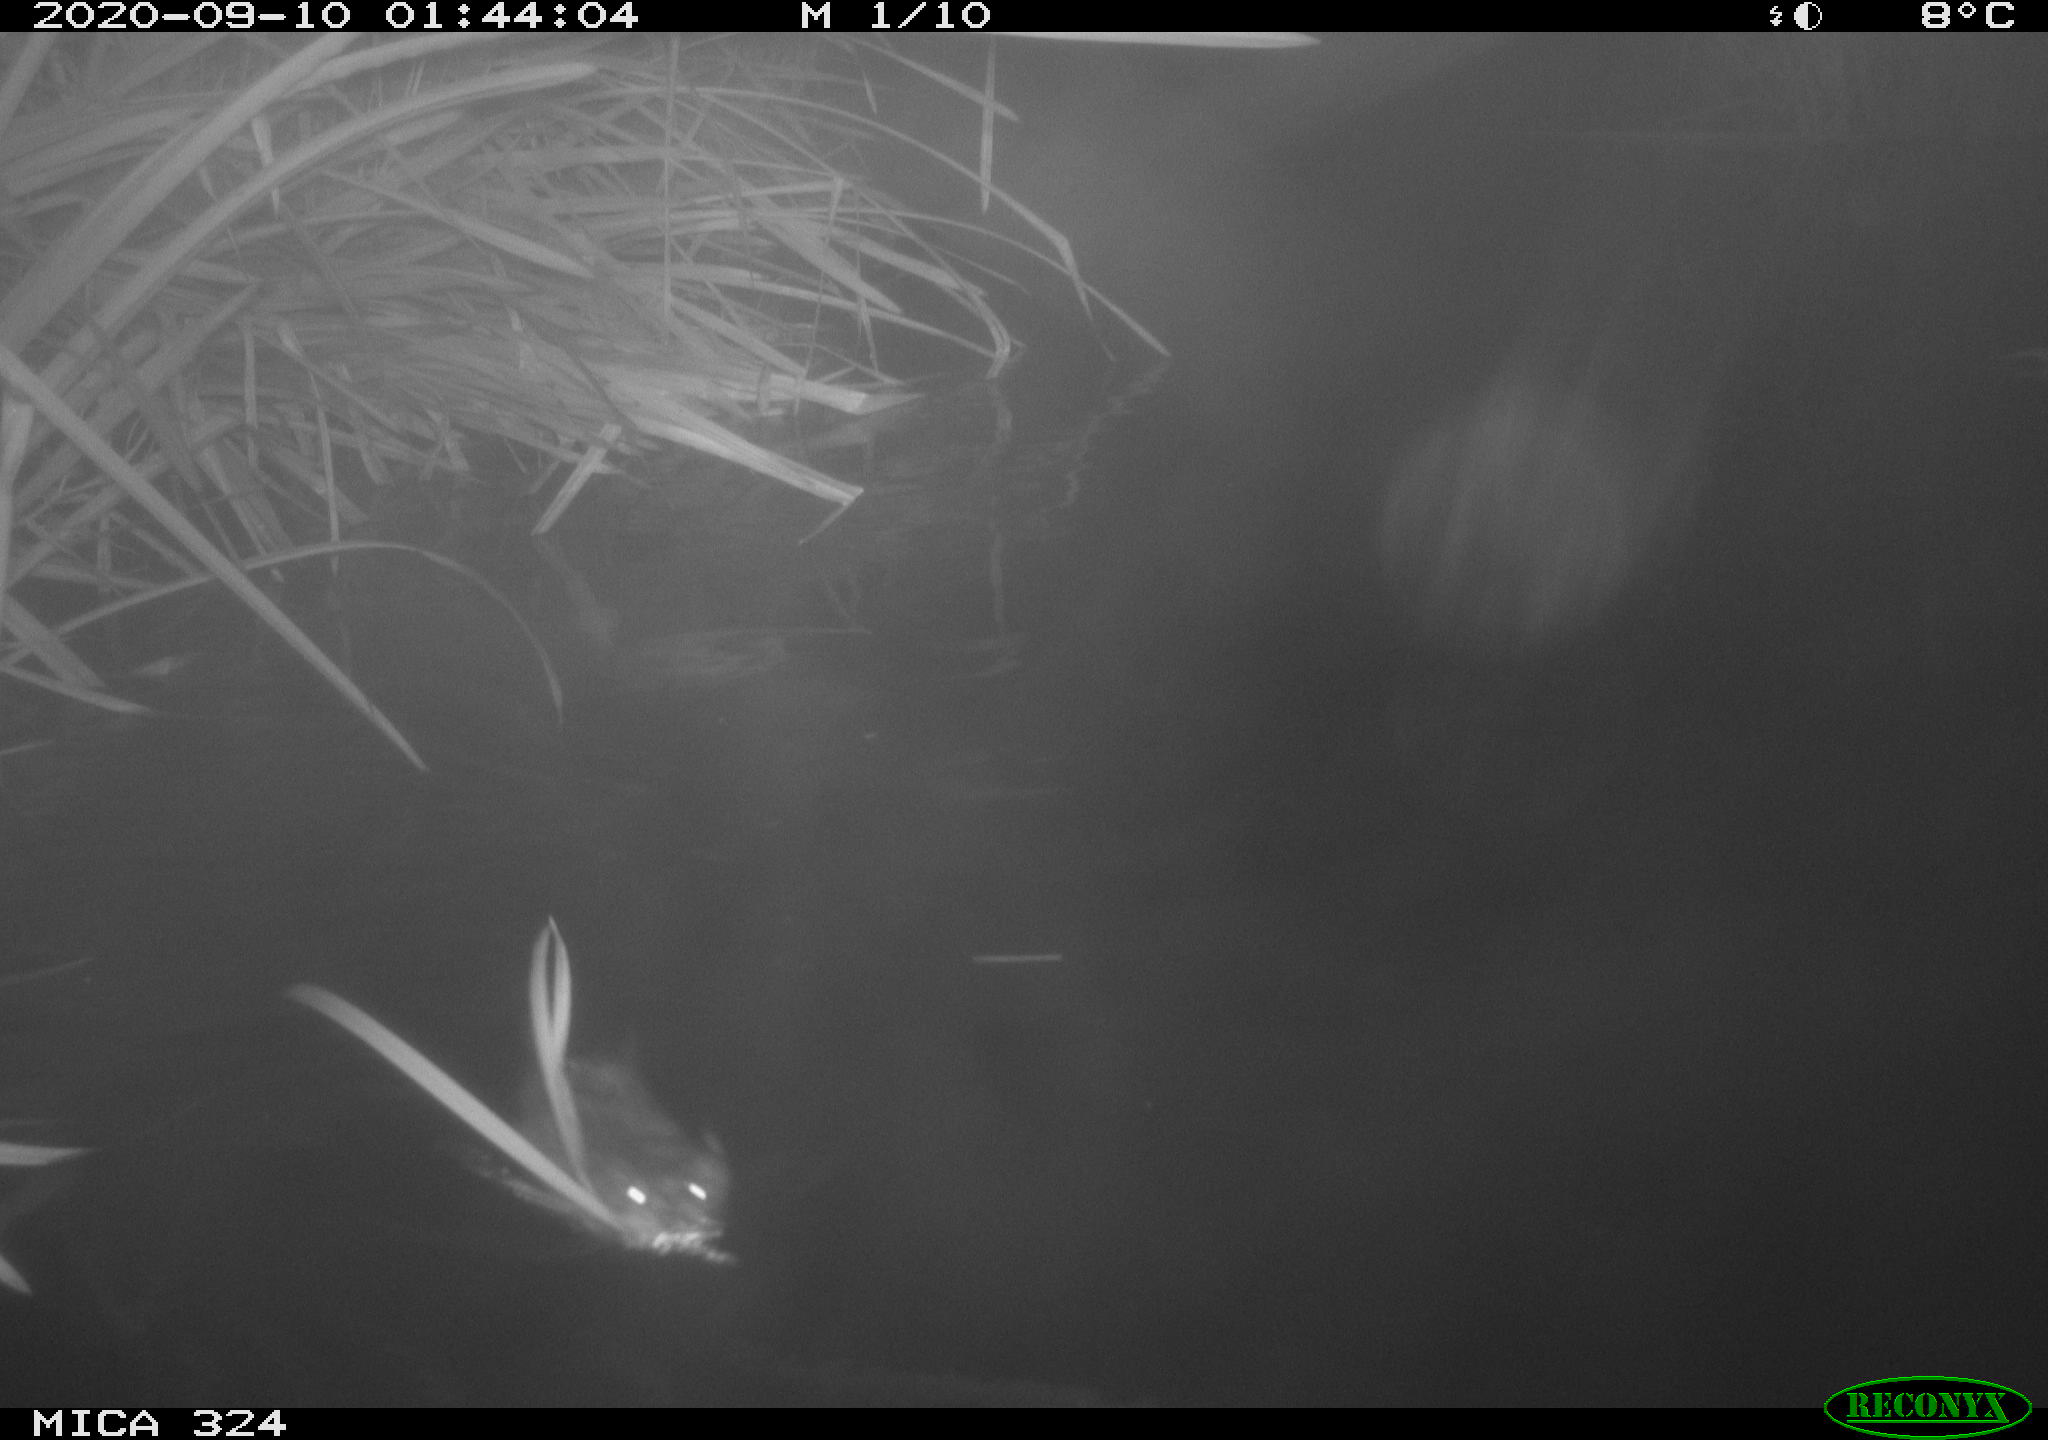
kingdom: Animalia
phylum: Chordata
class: Mammalia
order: Rodentia
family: Cricetidae
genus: Ondatra
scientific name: Ondatra zibethicus
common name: Muskrat
